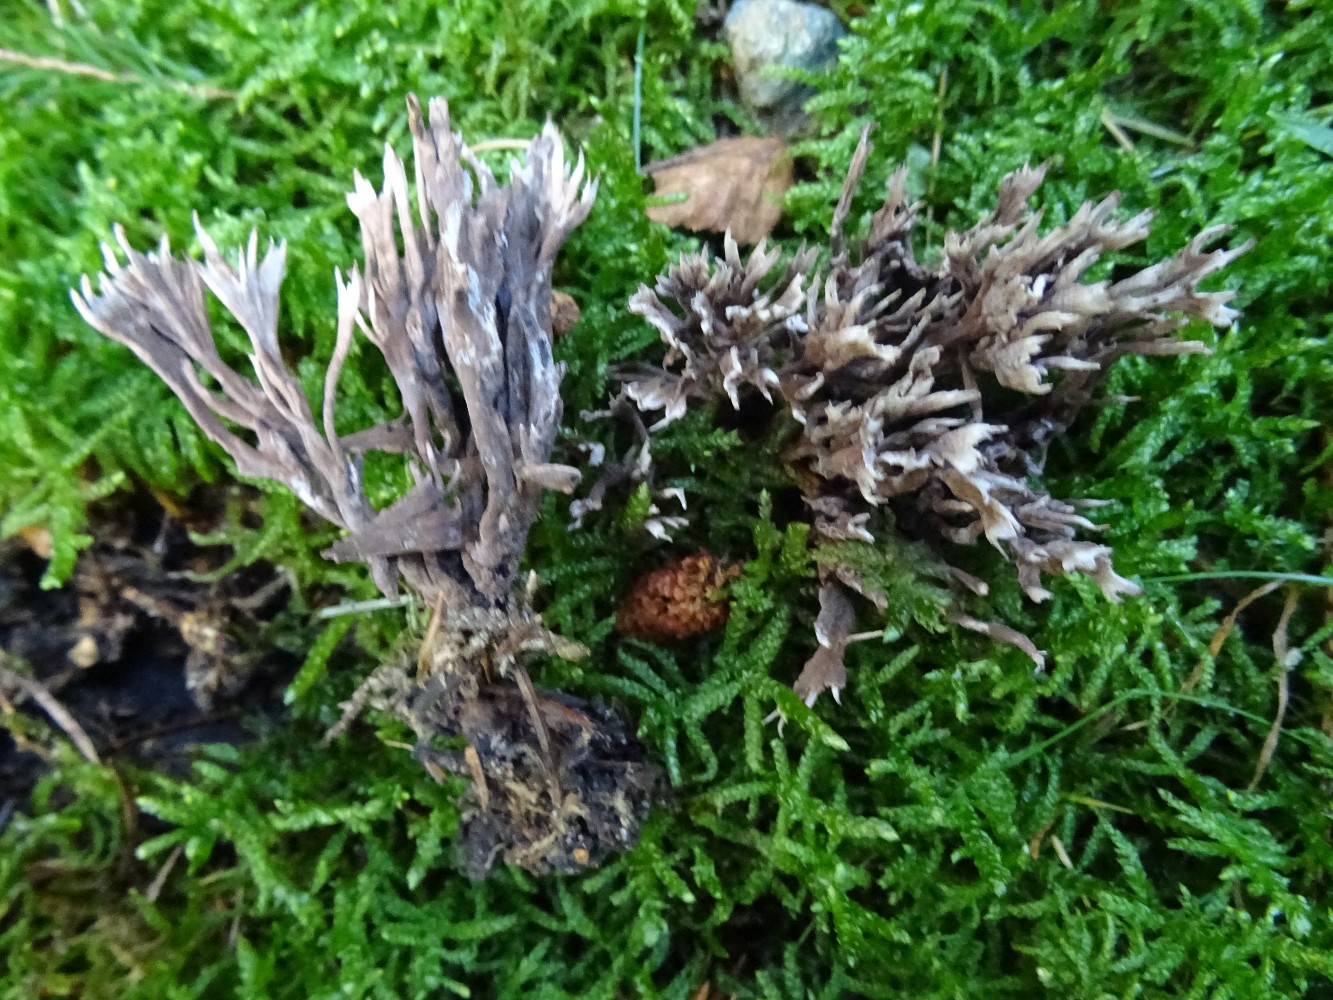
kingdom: Fungi
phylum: Basidiomycota
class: Agaricomycetes
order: Thelephorales
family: Thelephoraceae
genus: Thelephora
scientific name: Thelephora palmata
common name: grenet frynsesvamp
